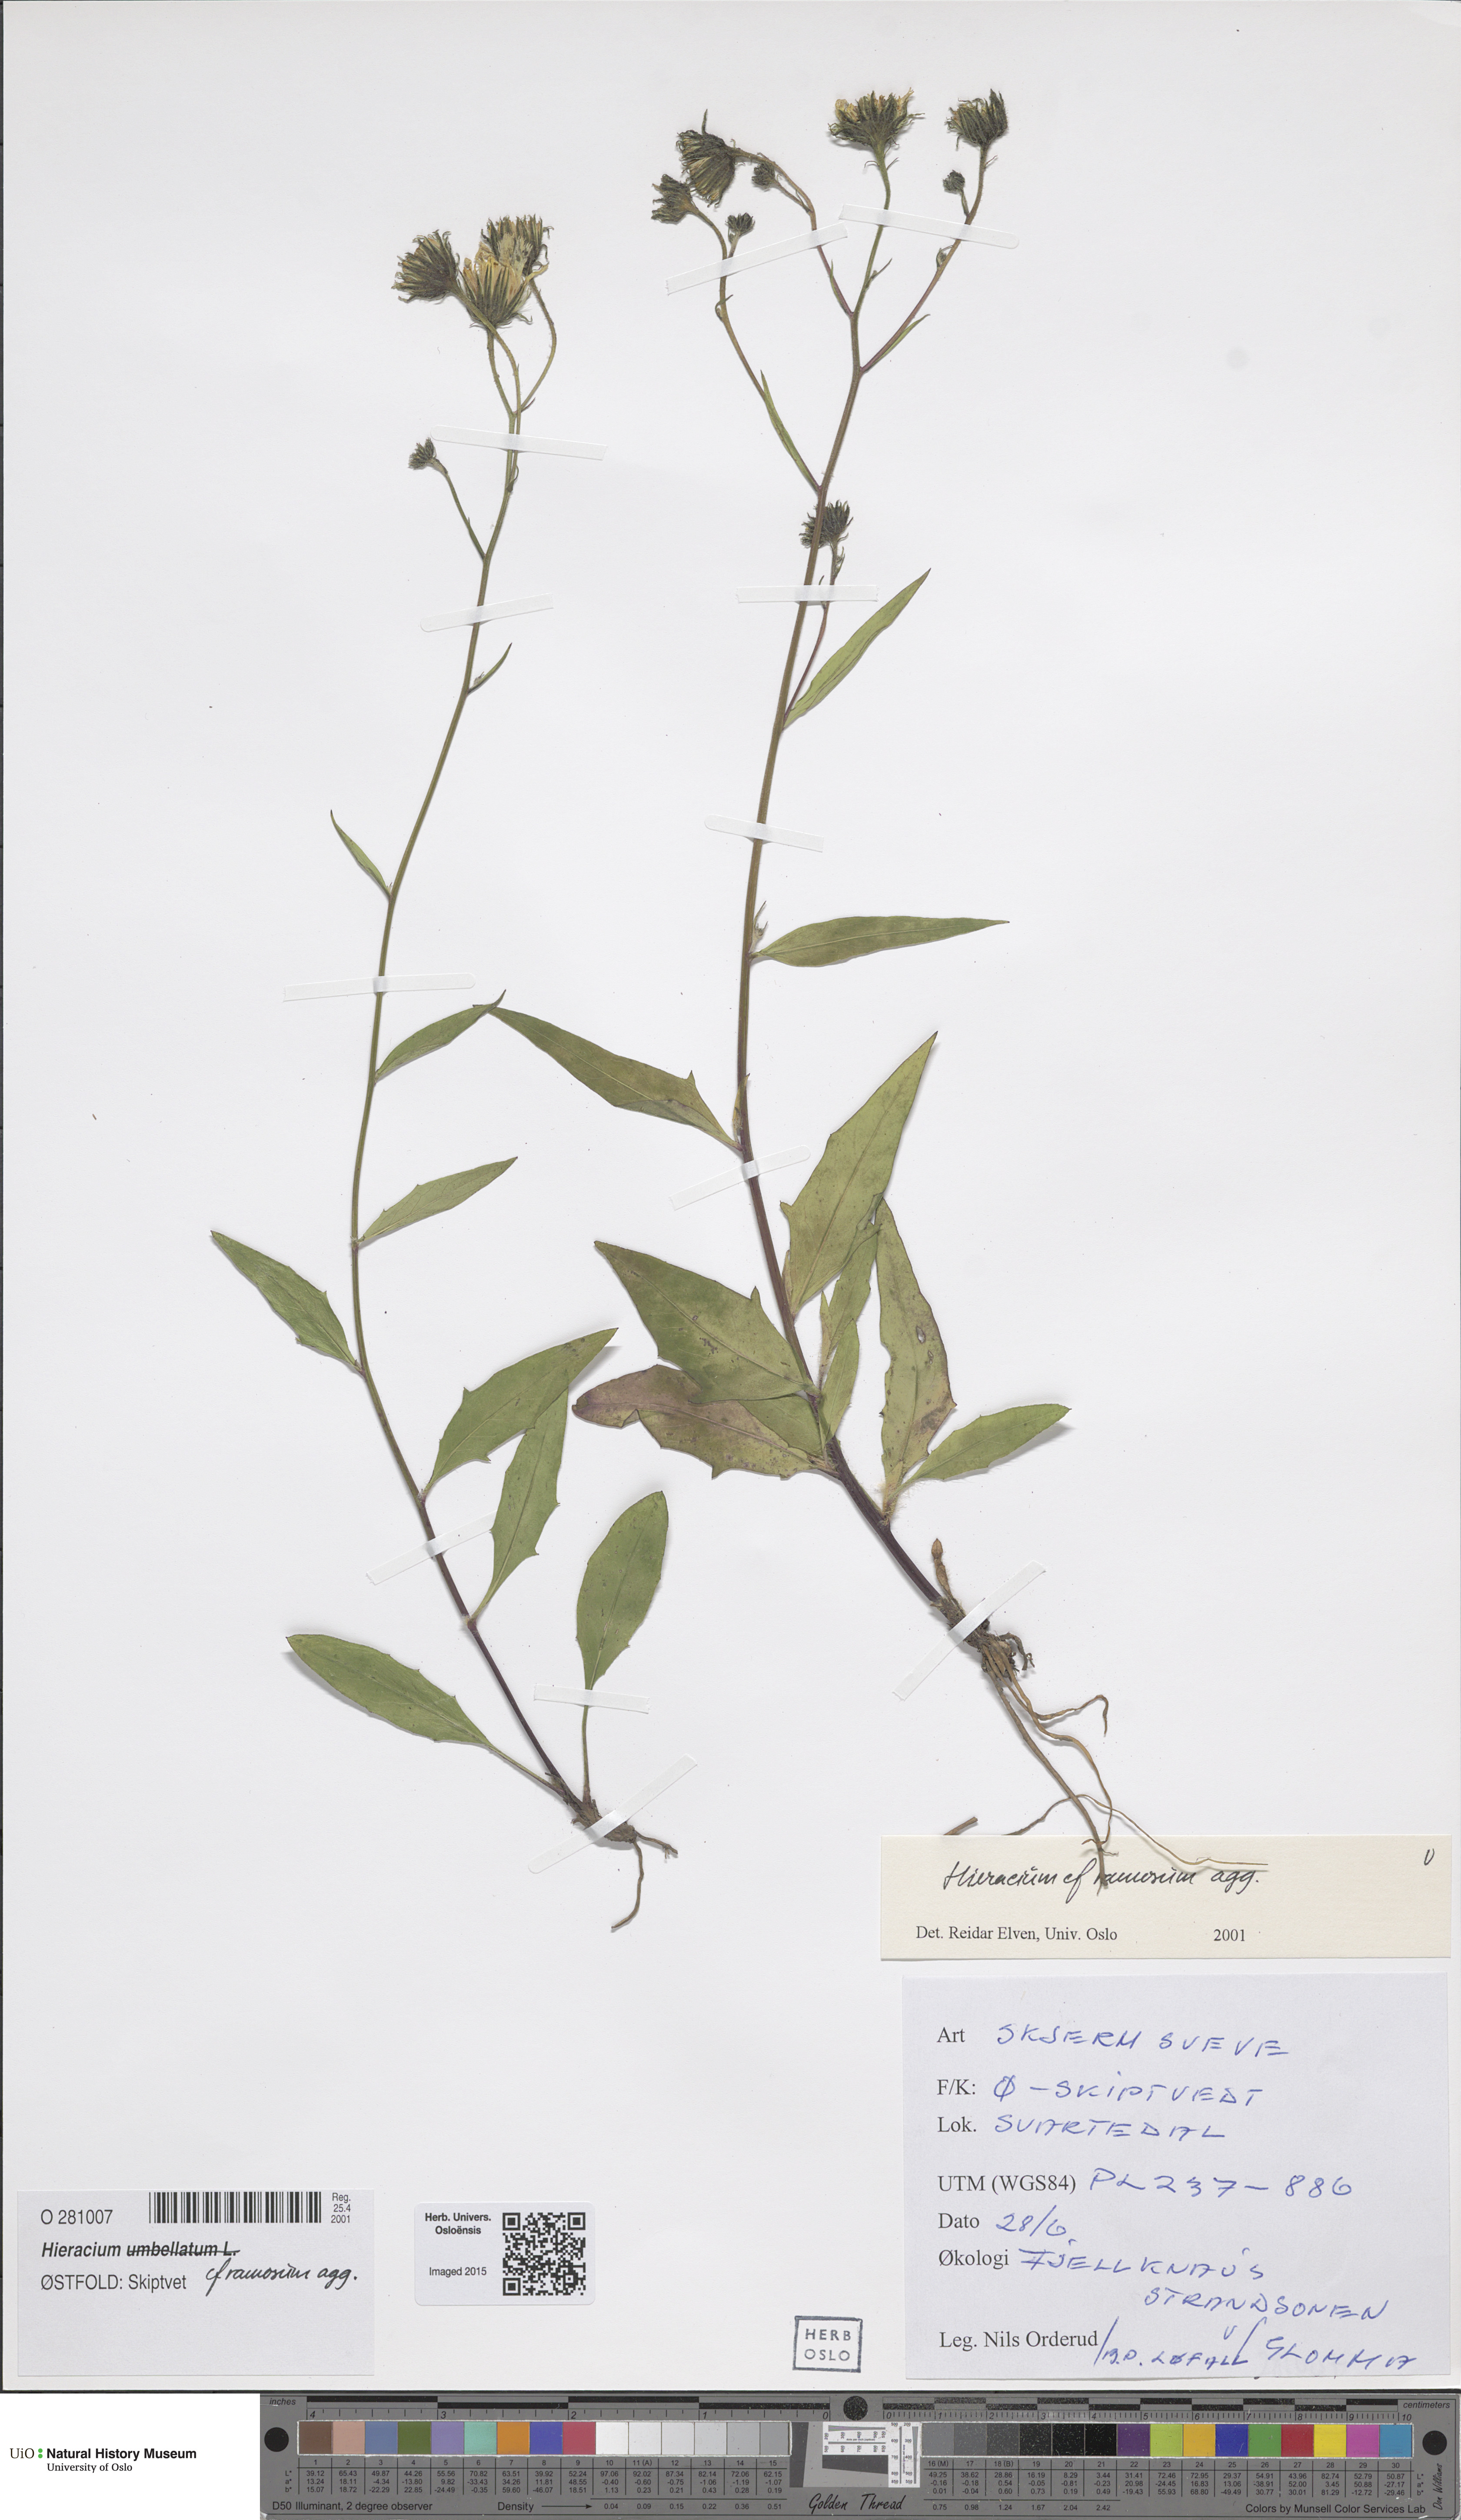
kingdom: Plantae
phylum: Tracheophyta
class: Magnoliopsida
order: Asterales
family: Asteraceae
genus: Hieracium
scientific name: Hieracium umbellatum
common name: Northern hawkweed
